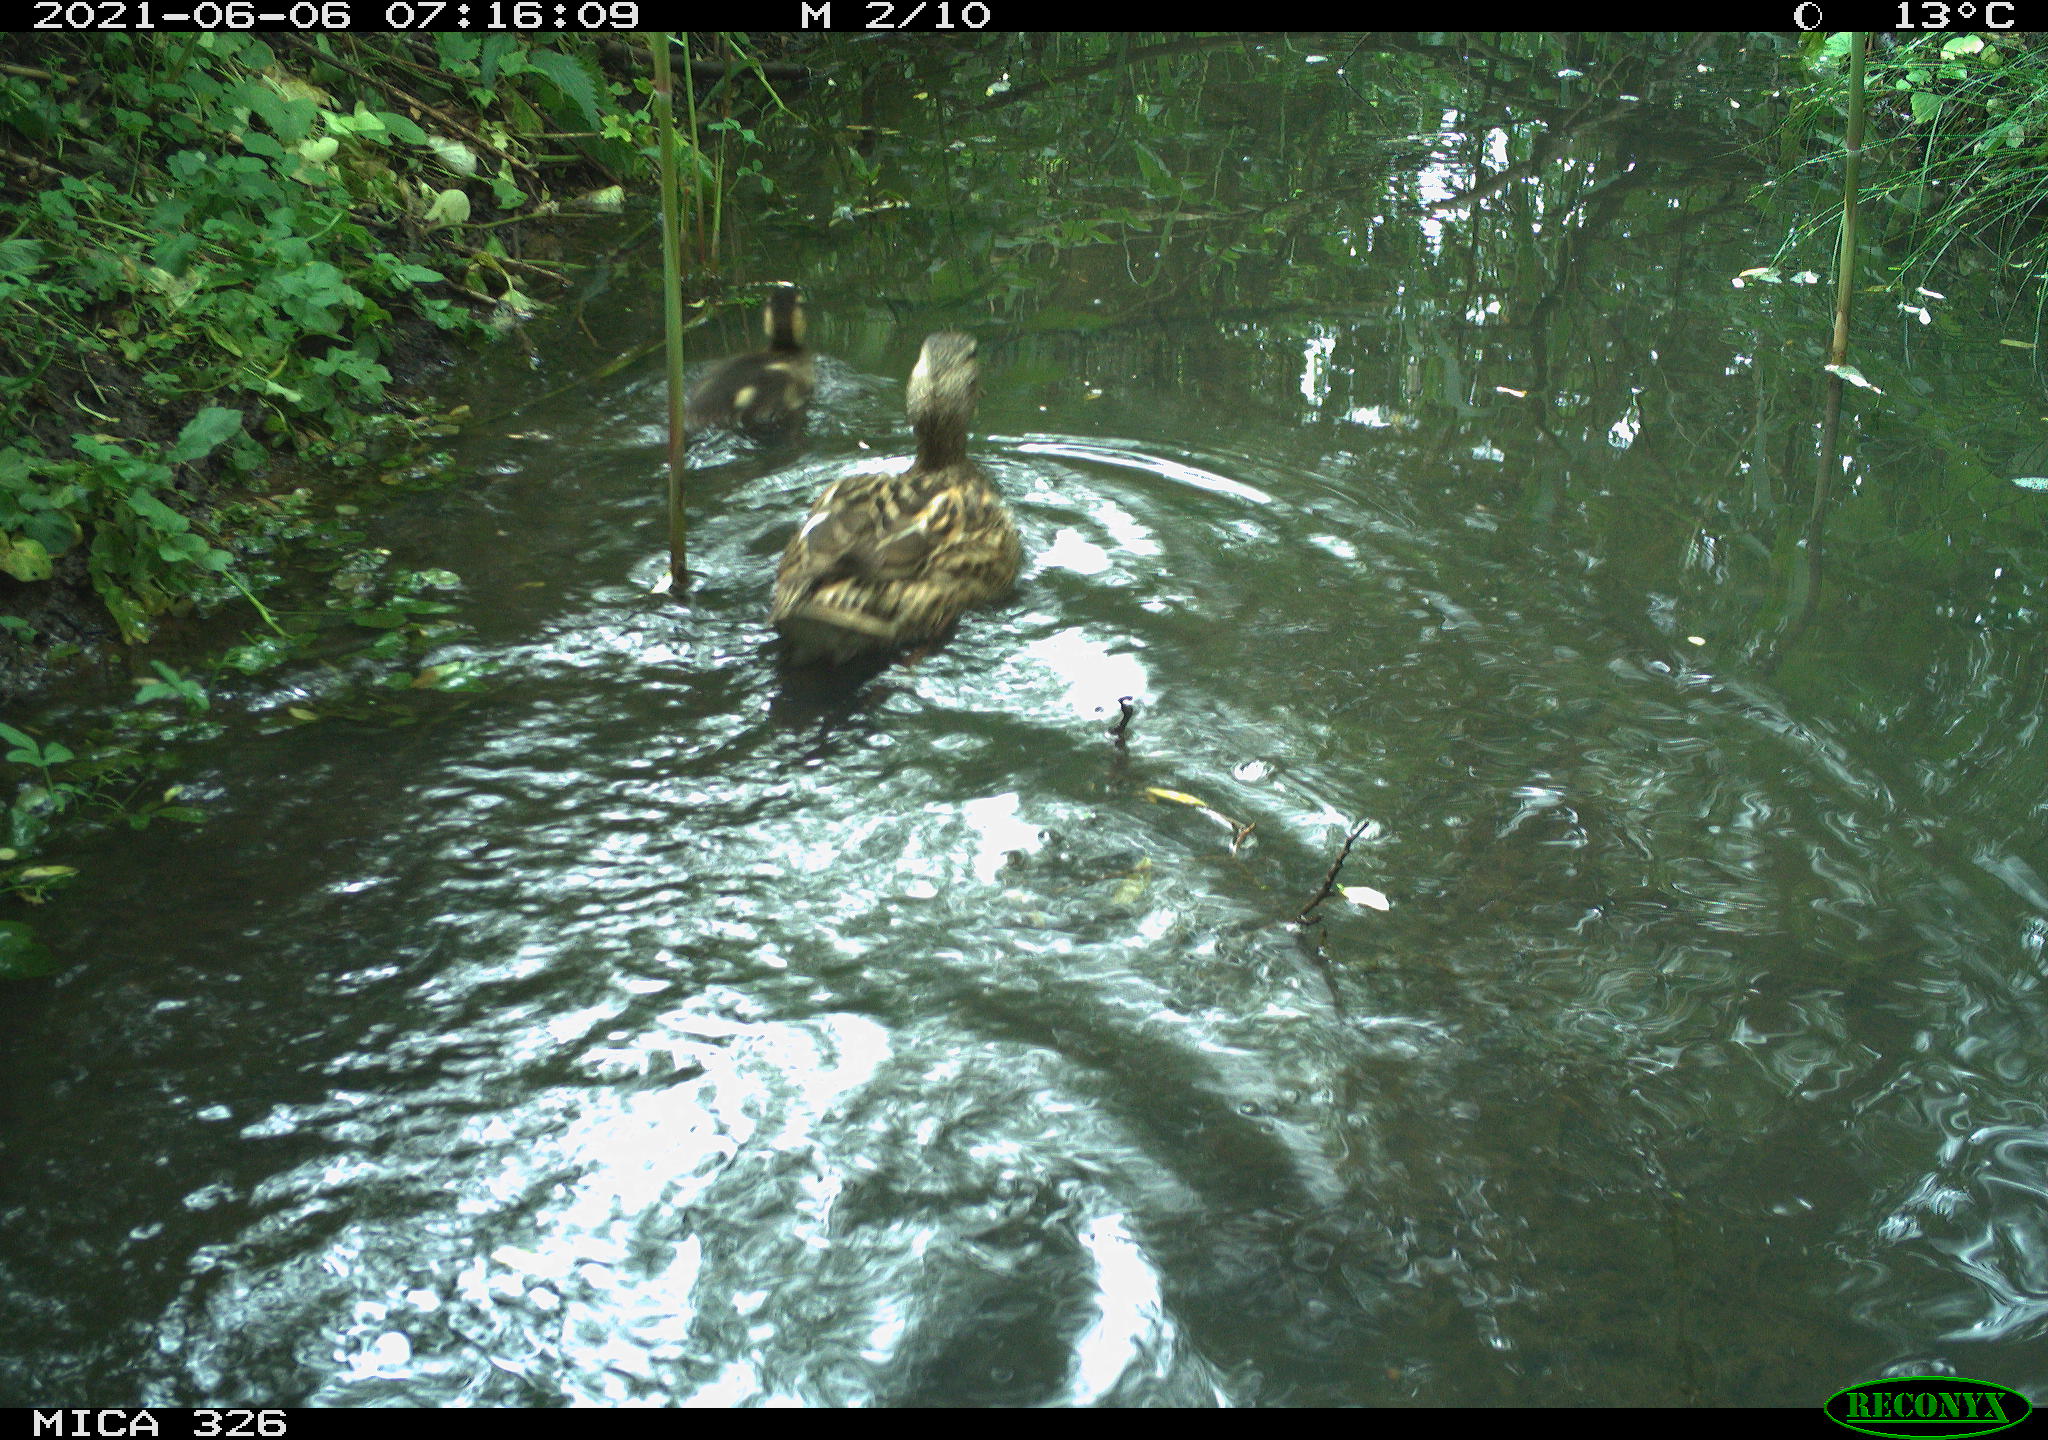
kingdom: Animalia
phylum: Chordata
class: Aves
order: Anseriformes
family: Anatidae
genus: Anas
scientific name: Anas platyrhynchos
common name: Mallard
